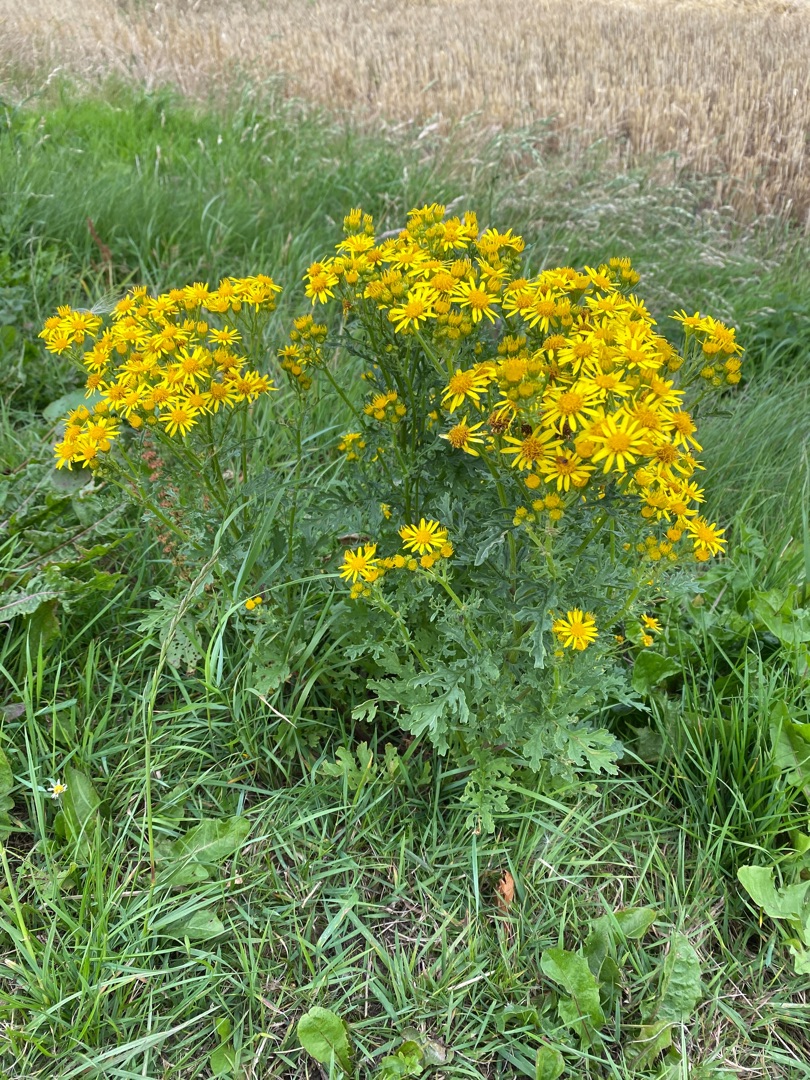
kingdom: Plantae
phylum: Tracheophyta
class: Magnoliopsida
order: Asterales
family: Asteraceae
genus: Jacobaea
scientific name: Jacobaea vulgaris
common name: Eng-brandbæger
